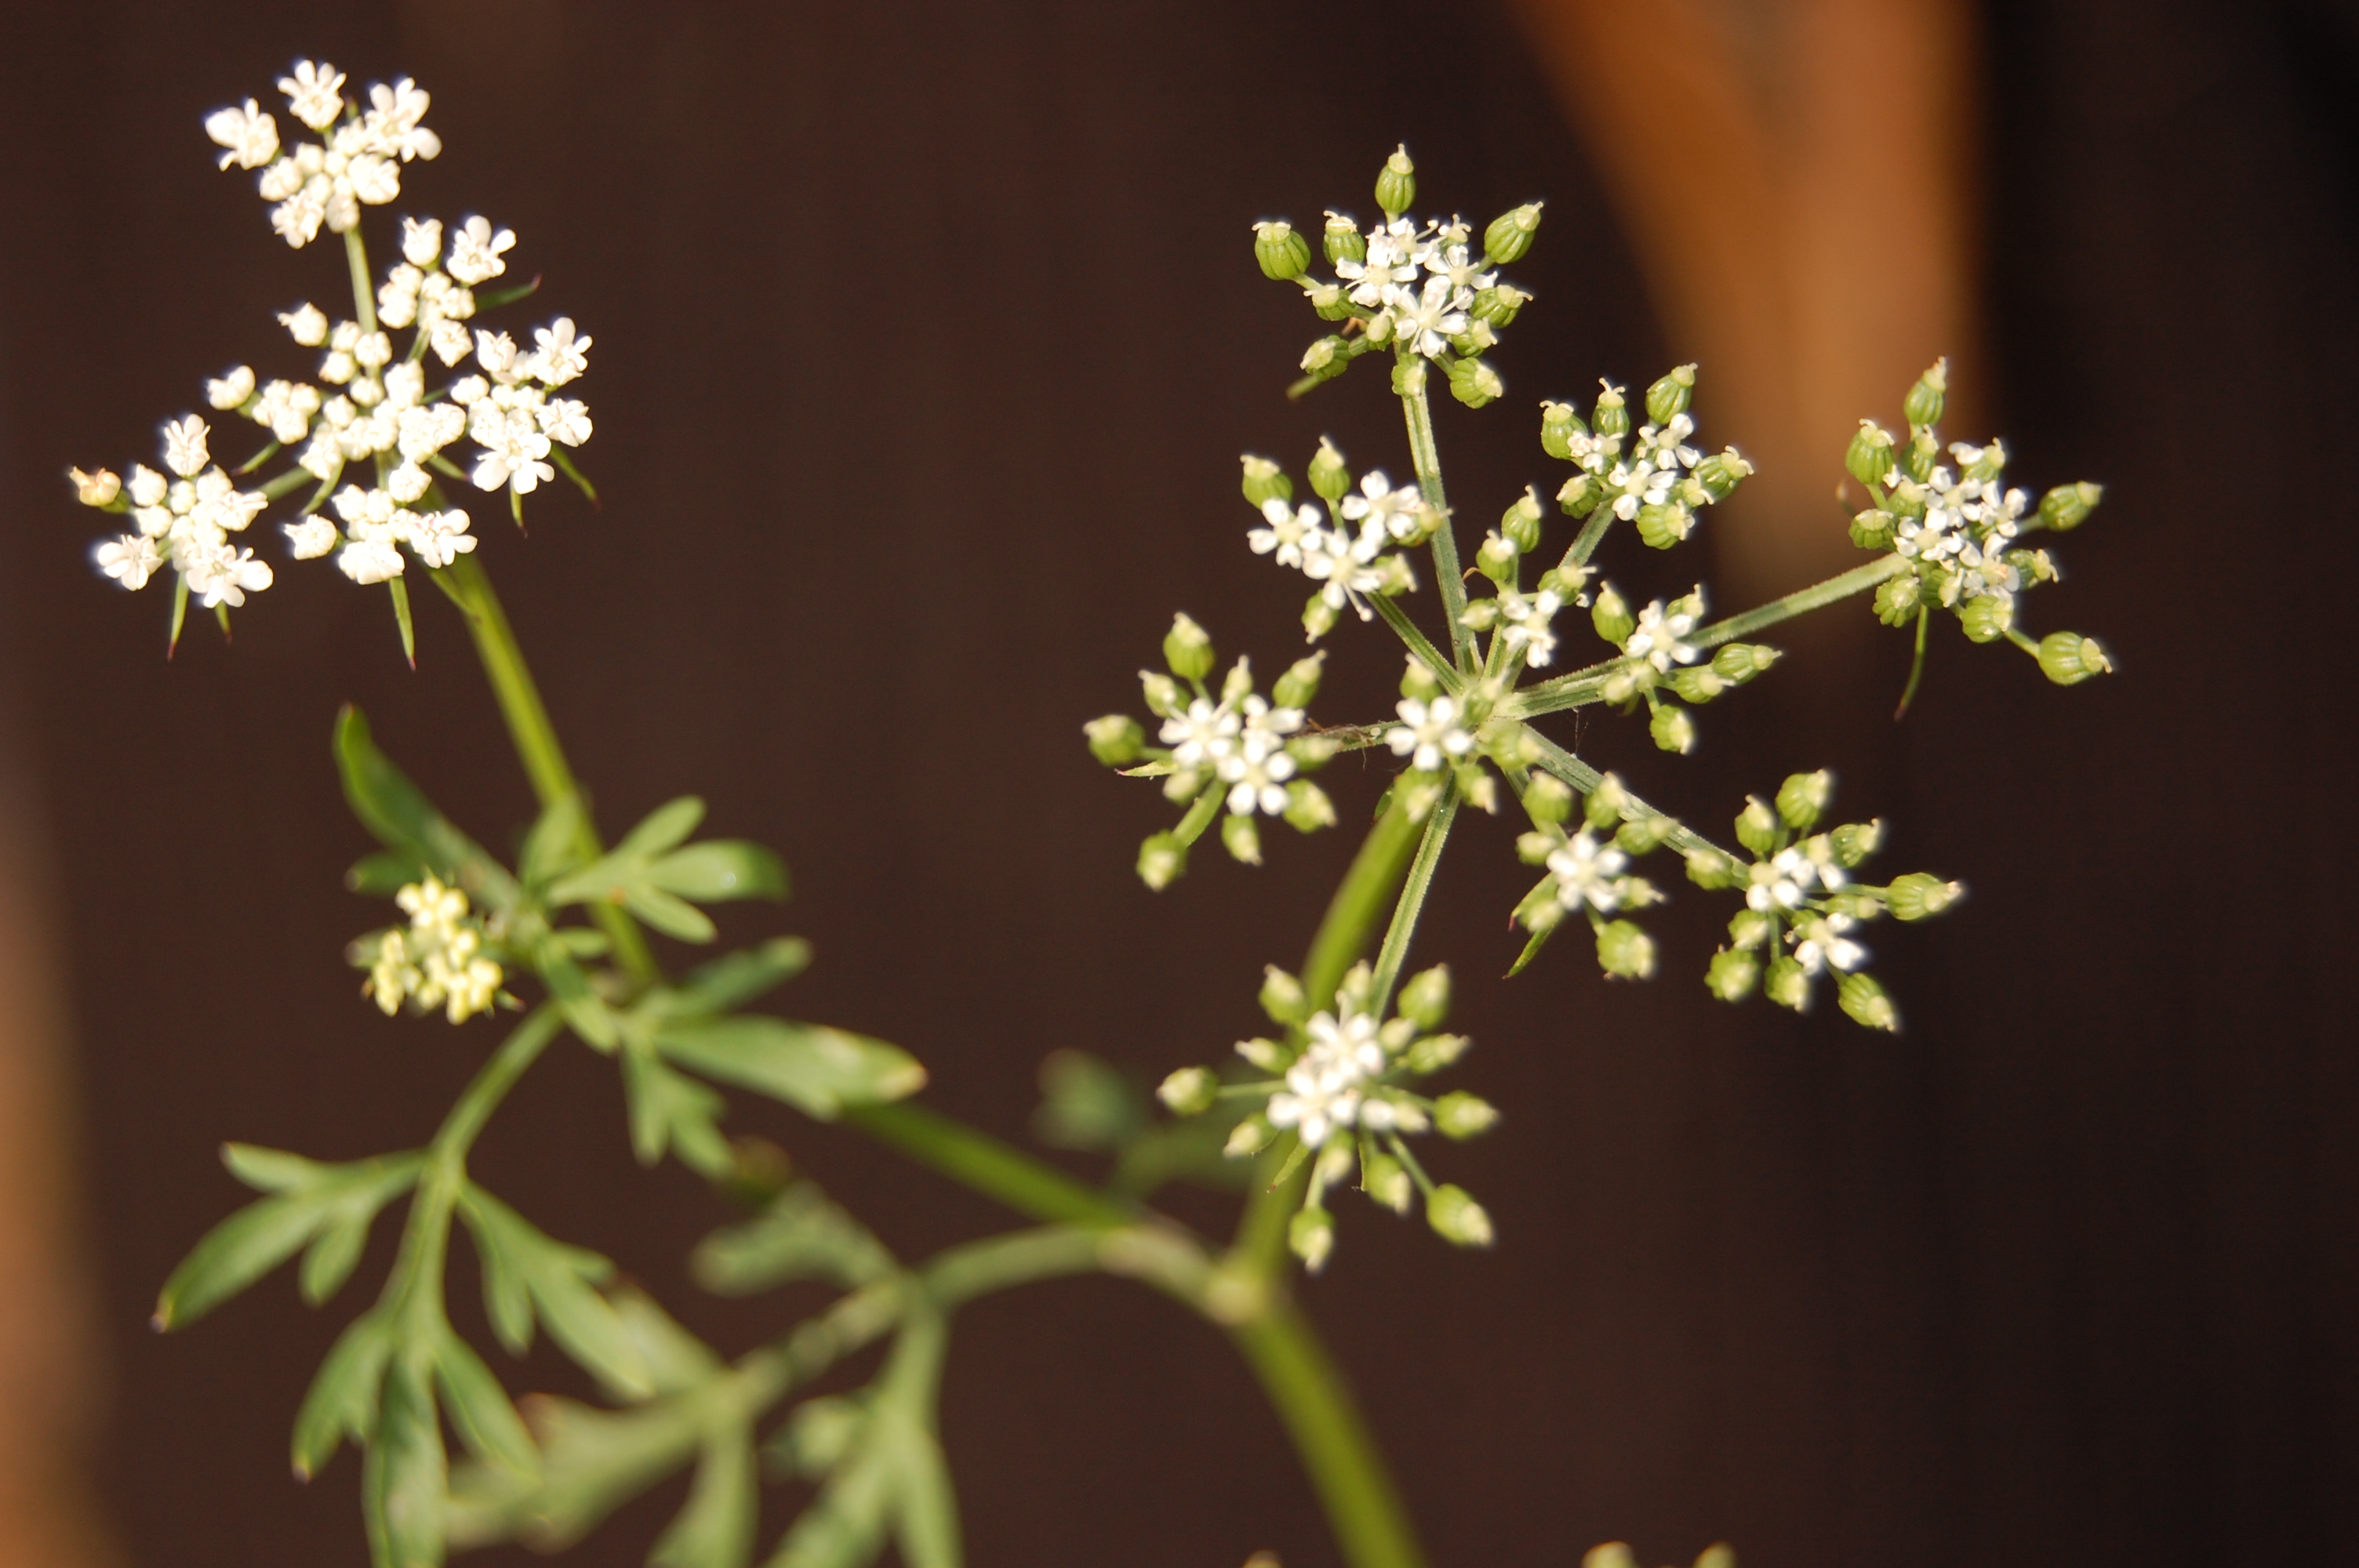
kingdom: Plantae
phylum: Tracheophyta
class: Magnoliopsida
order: Apiales
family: Apiaceae
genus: Aethusa
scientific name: Aethusa cynapium
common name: Fool's parsley
